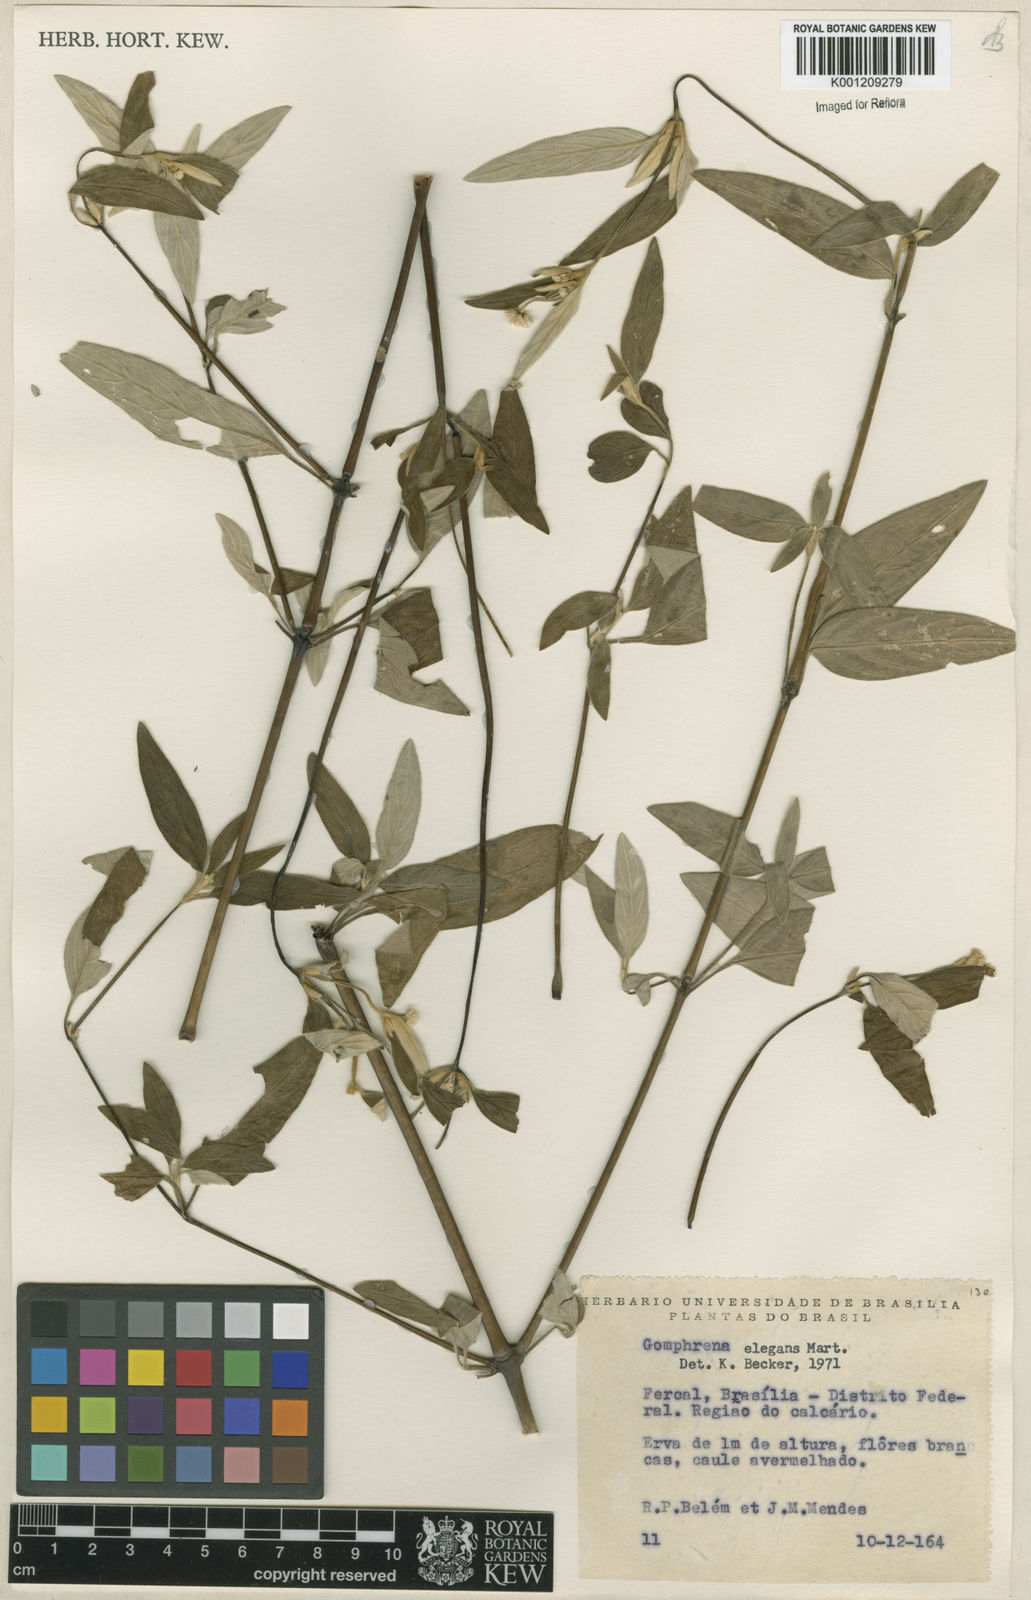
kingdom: Plantae
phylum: Tracheophyta
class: Magnoliopsida
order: Caryophyllales
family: Amaranthaceae
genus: Gomphrena
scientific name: Gomphrena elegans
